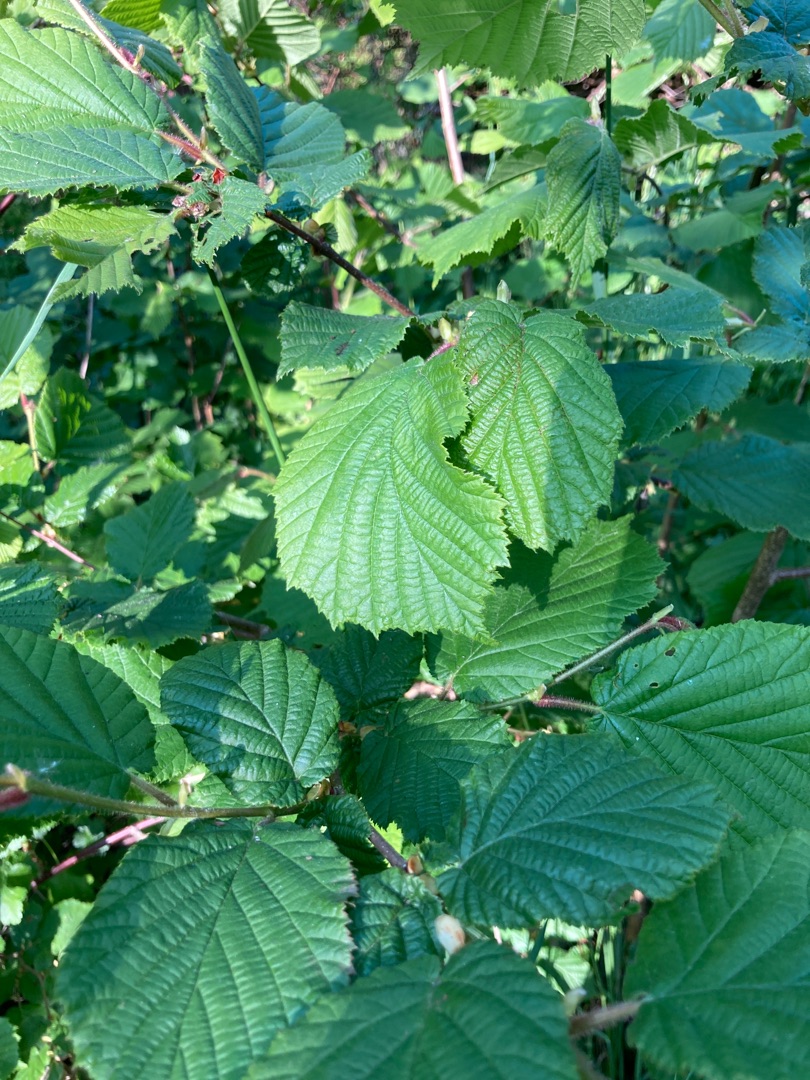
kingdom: Plantae
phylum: Tracheophyta
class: Magnoliopsida
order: Fagales
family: Betulaceae
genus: Corylus
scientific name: Corylus avellana
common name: Hassel
